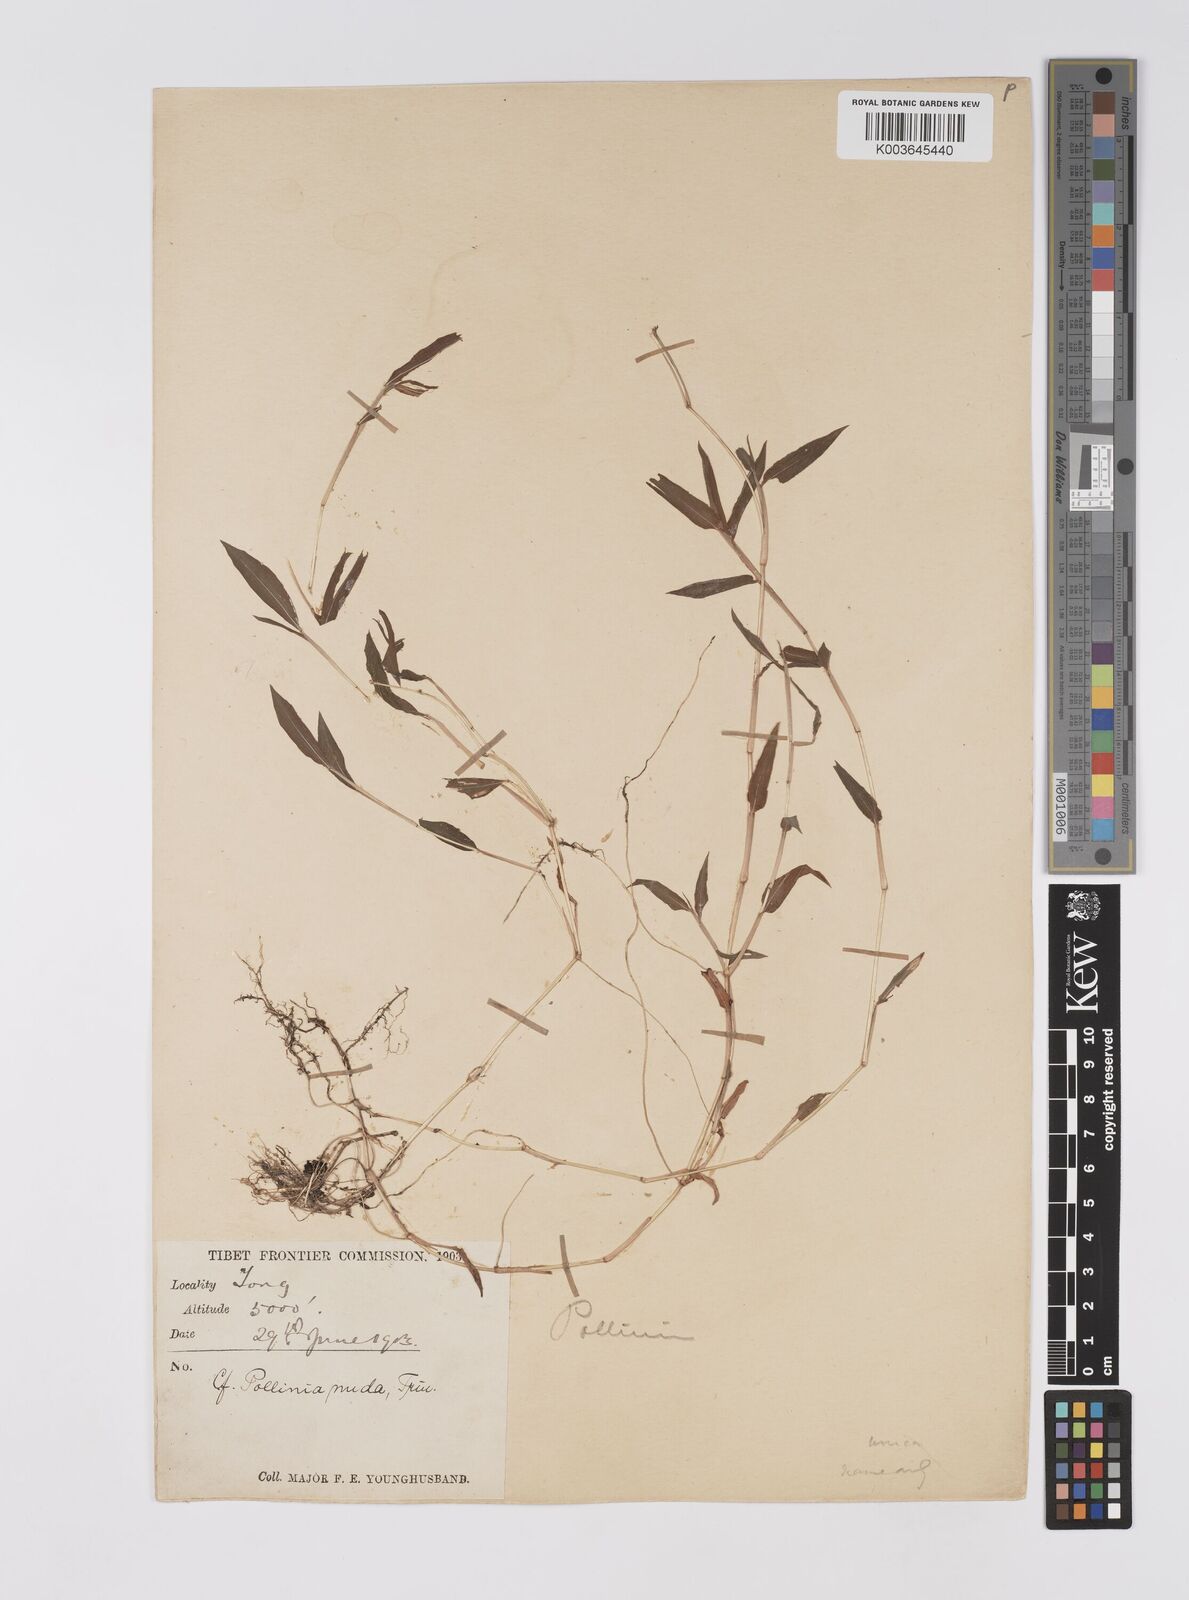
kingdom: Plantae
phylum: Tracheophyta
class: Liliopsida
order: Poales
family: Poaceae
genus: Microstegium
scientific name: Microstegium nudum
